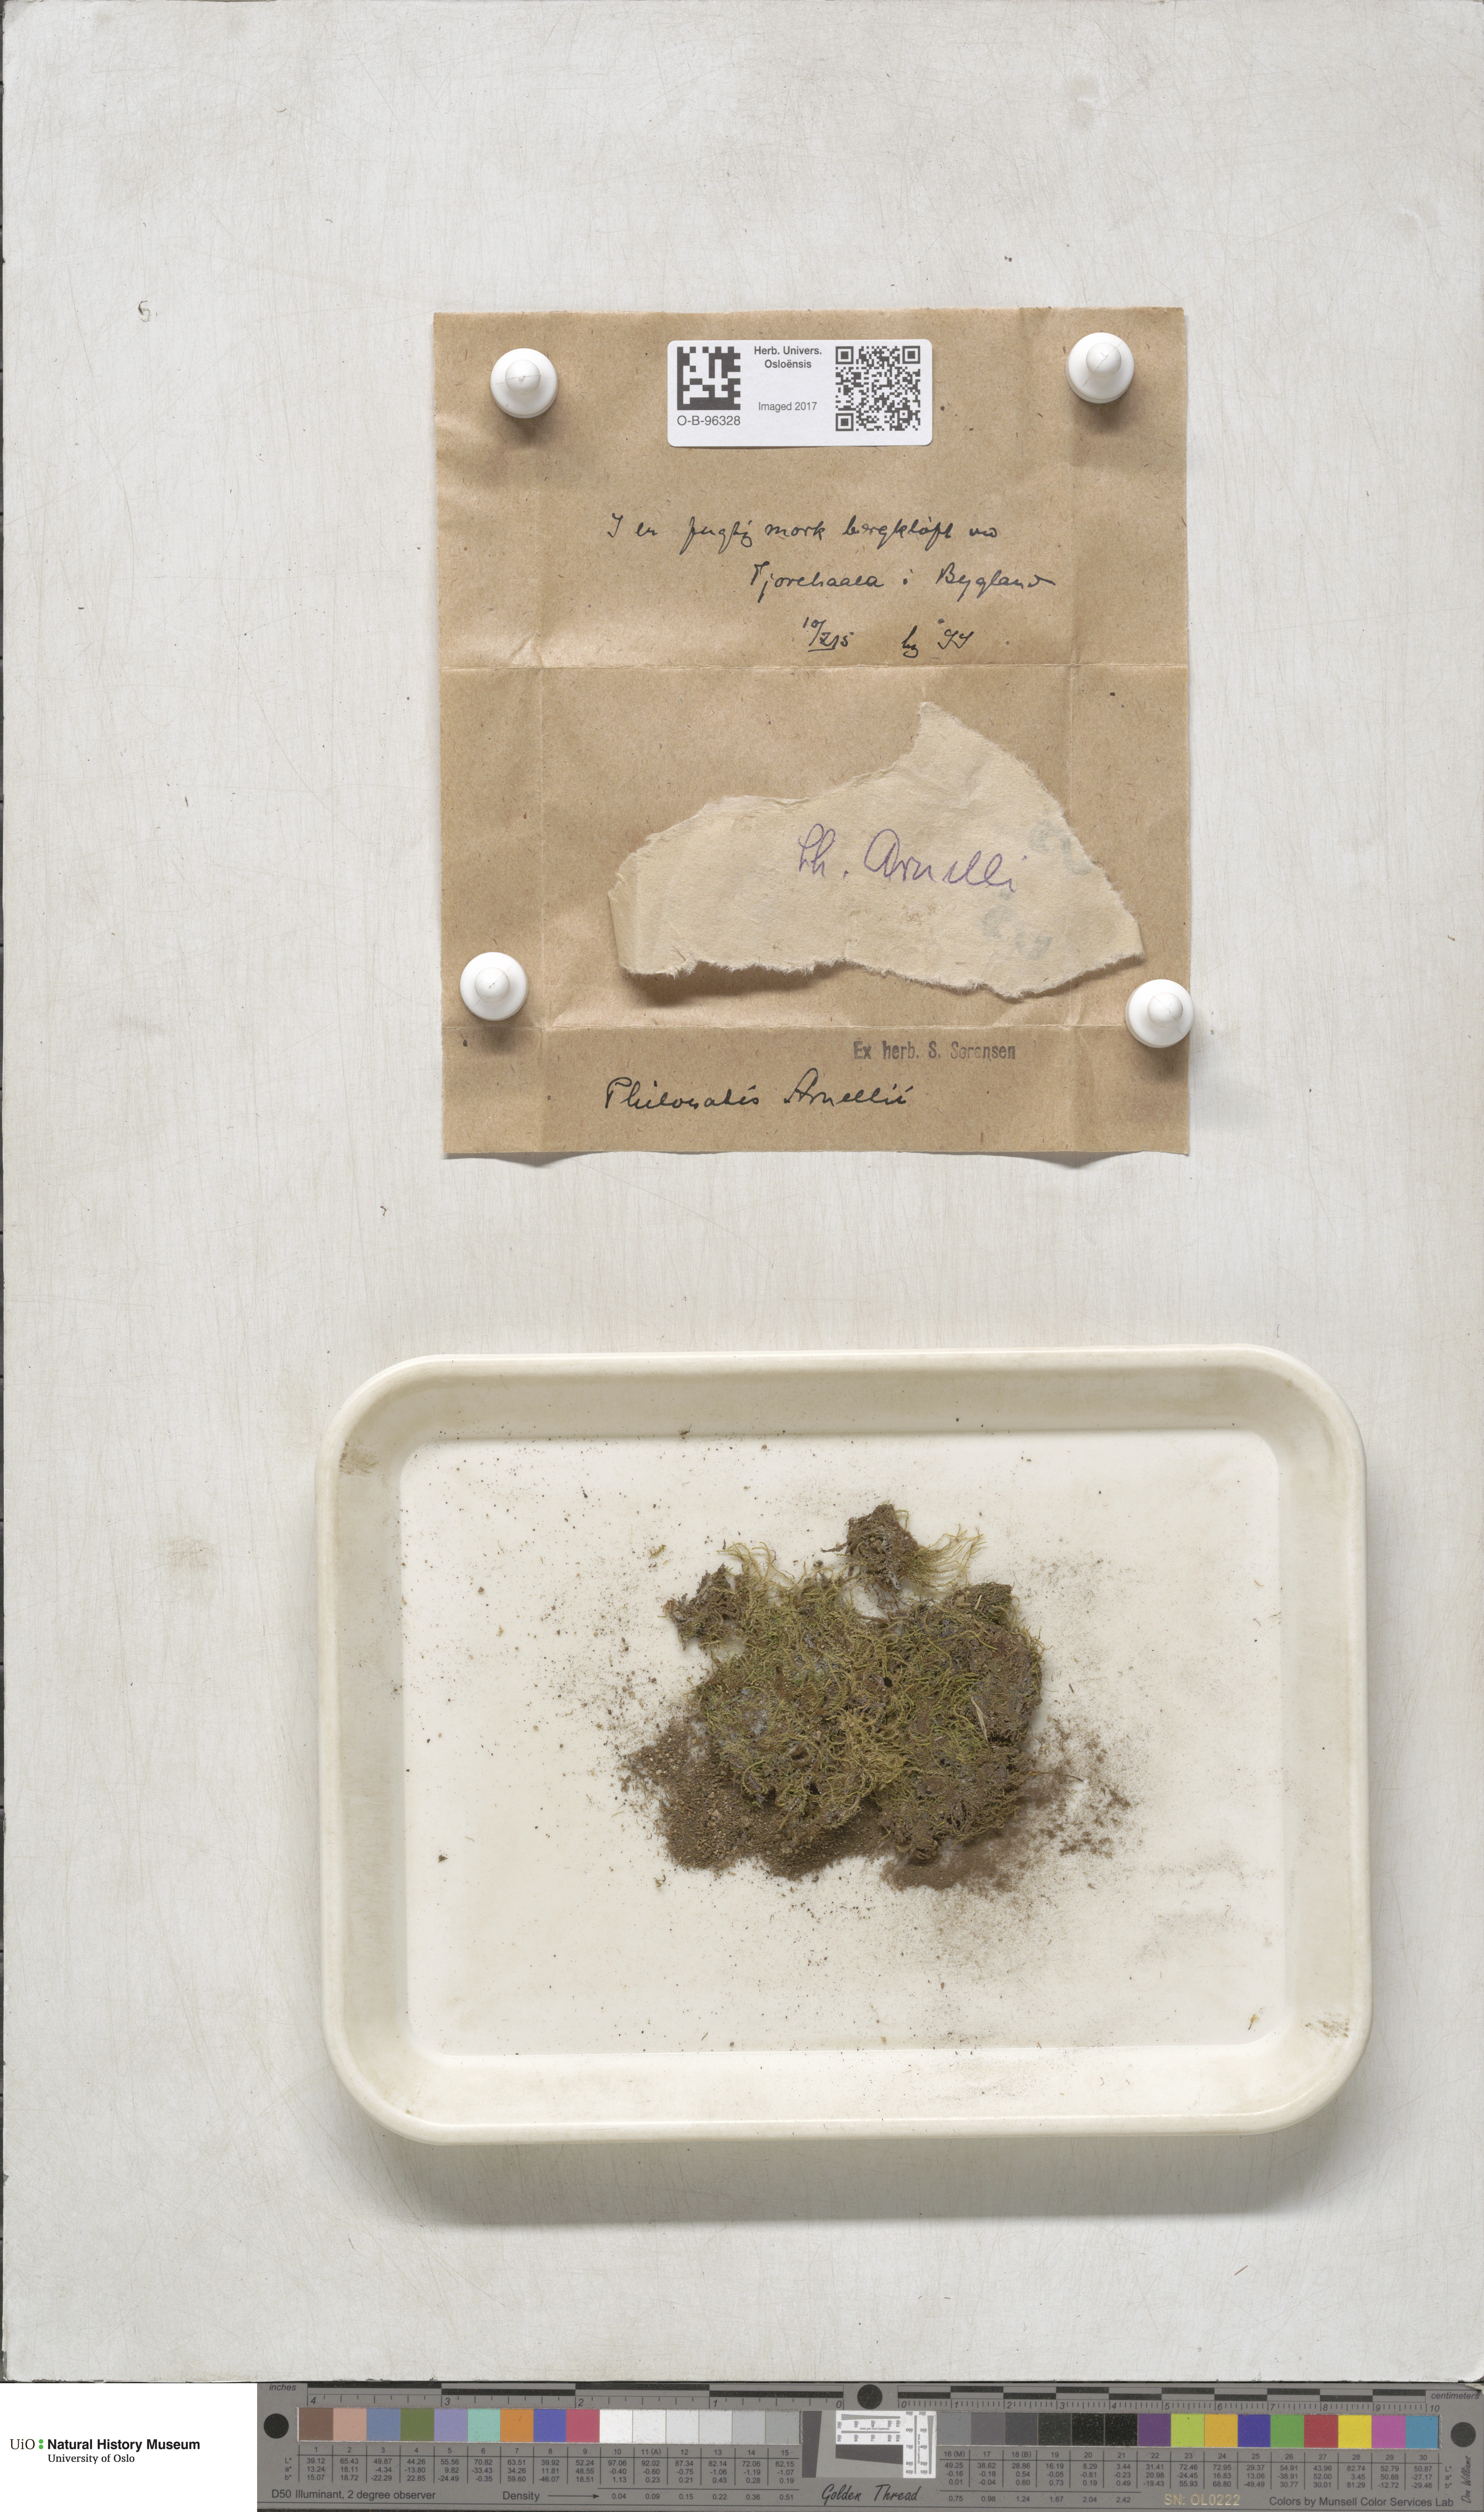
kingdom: Plantae
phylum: Bryophyta
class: Bryopsida
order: Bartramiales
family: Bartramiaceae
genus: Philonotis
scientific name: Philonotis capillaris
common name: Arnell's apple-moss
